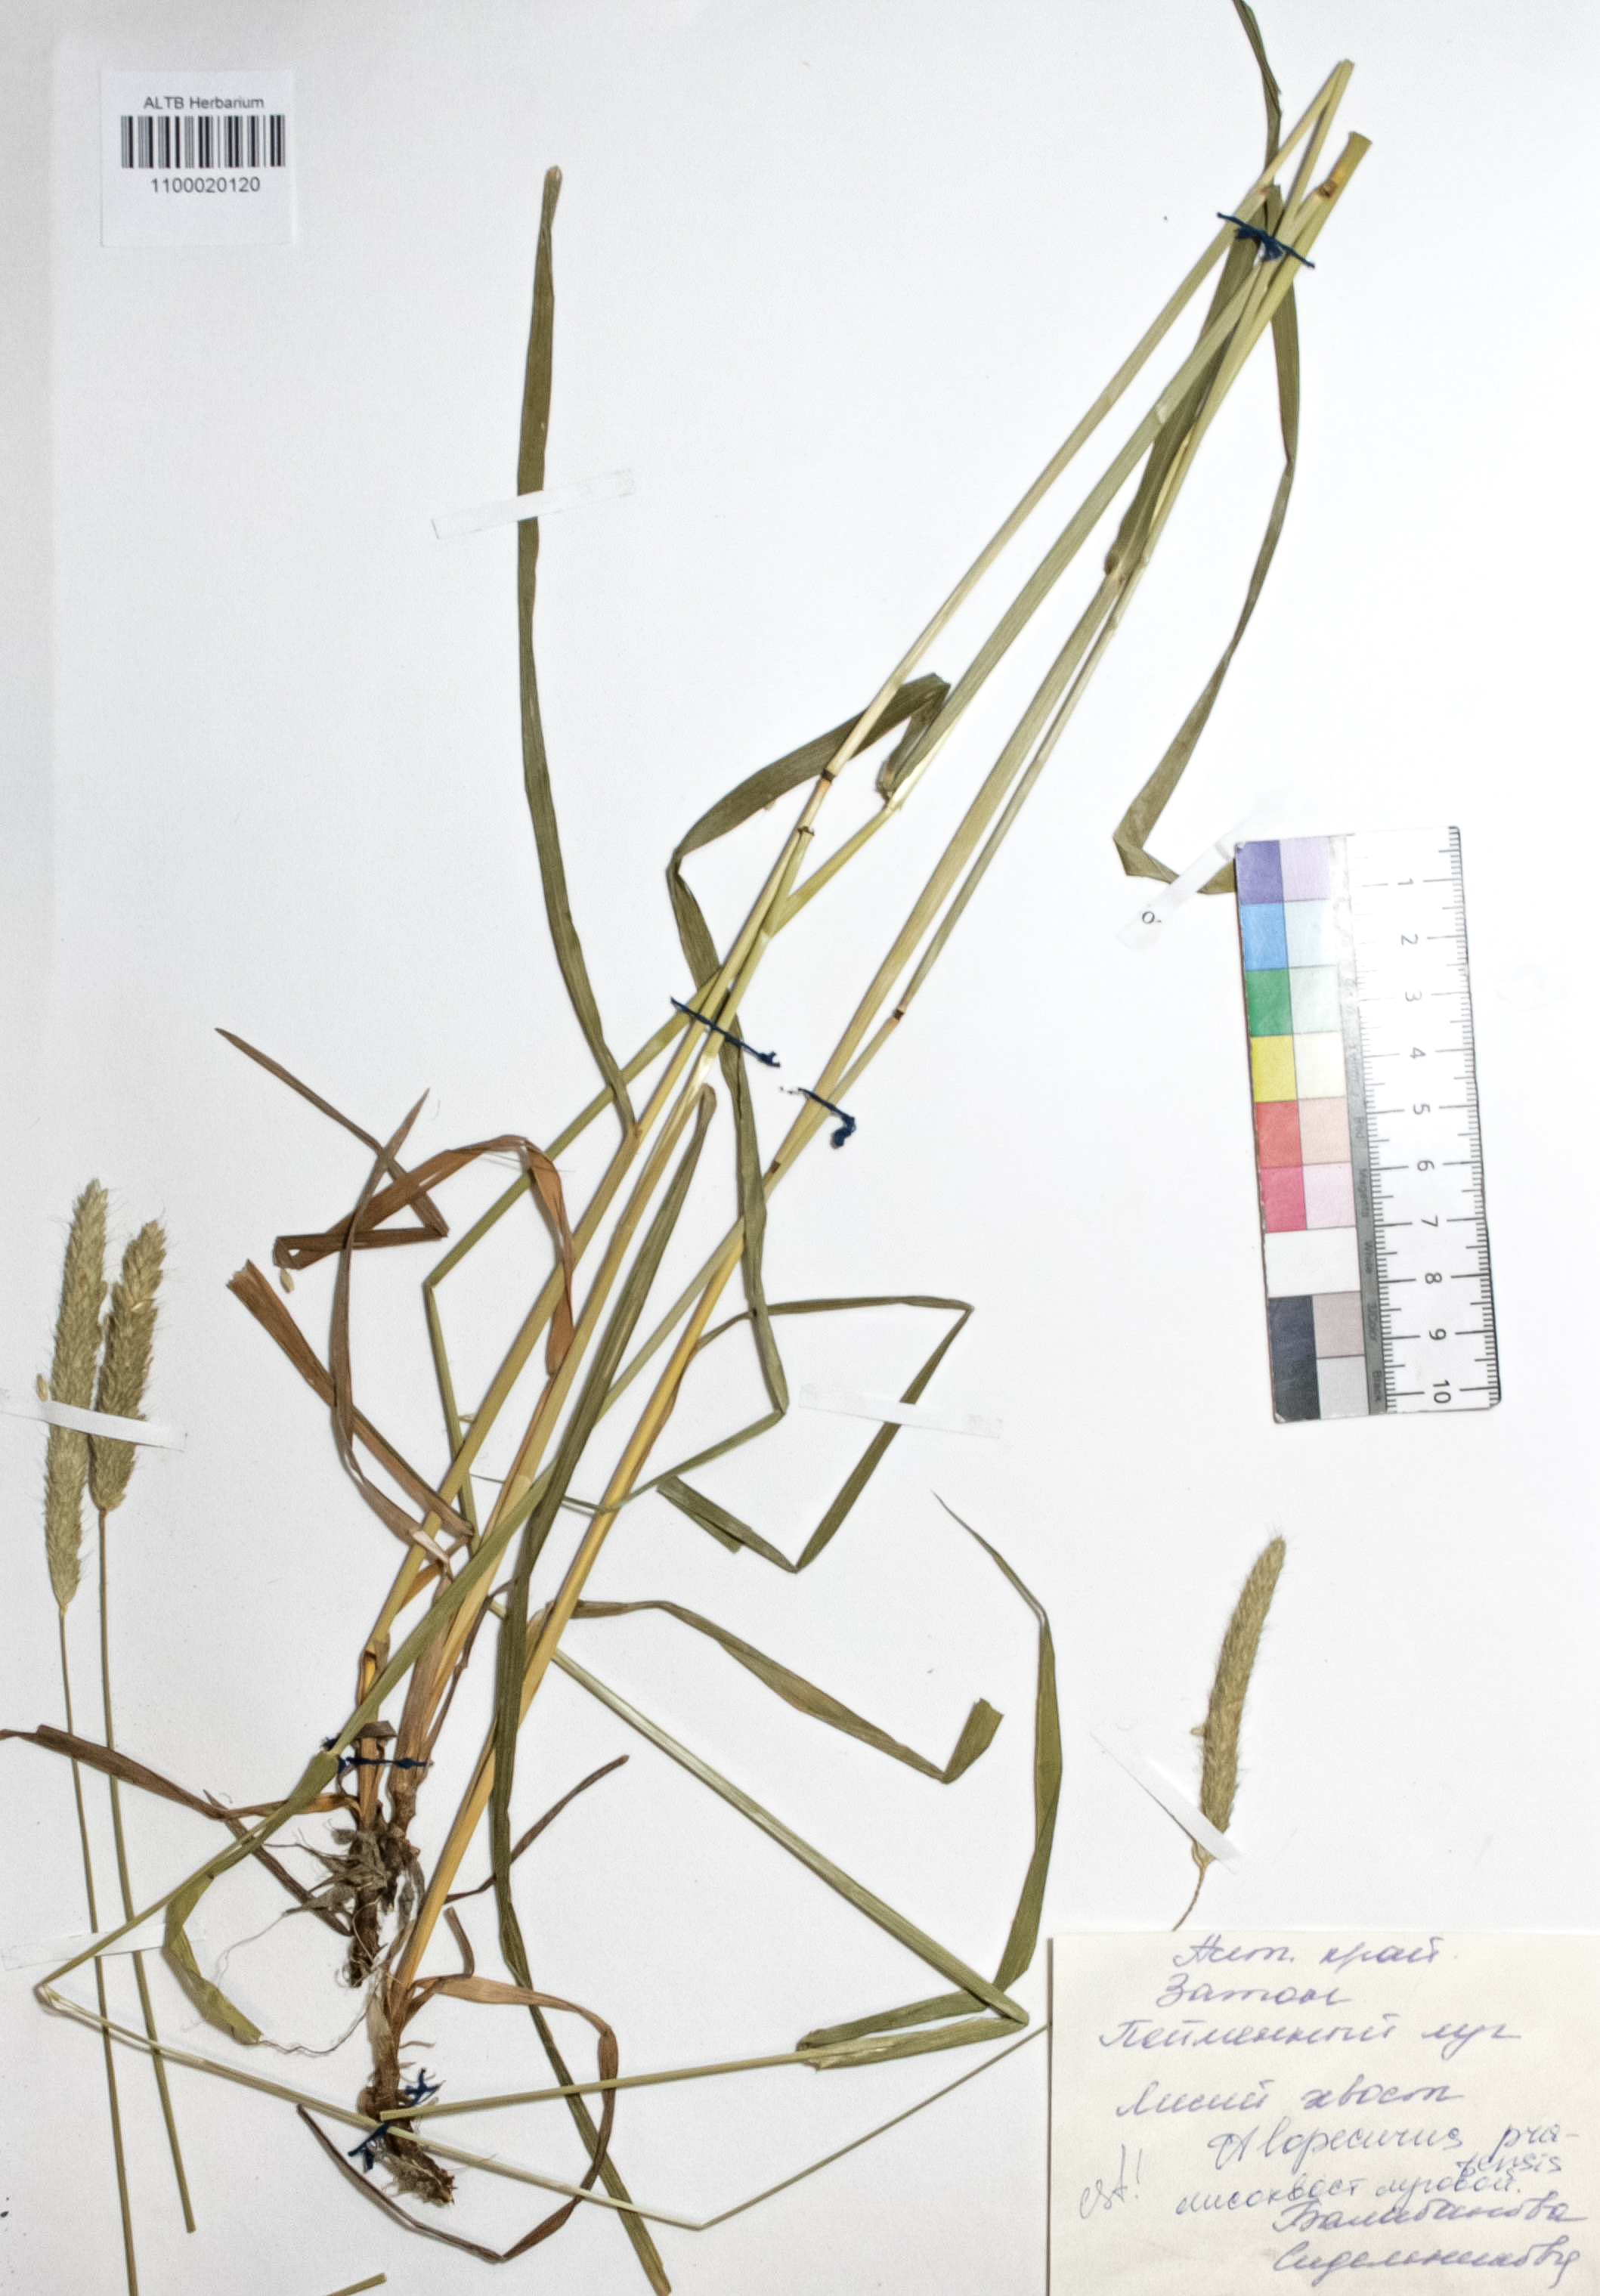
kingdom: Plantae
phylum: Tracheophyta
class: Liliopsida
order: Poales
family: Poaceae
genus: Alopecurus
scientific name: Alopecurus pratensis
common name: Meadow foxtail
